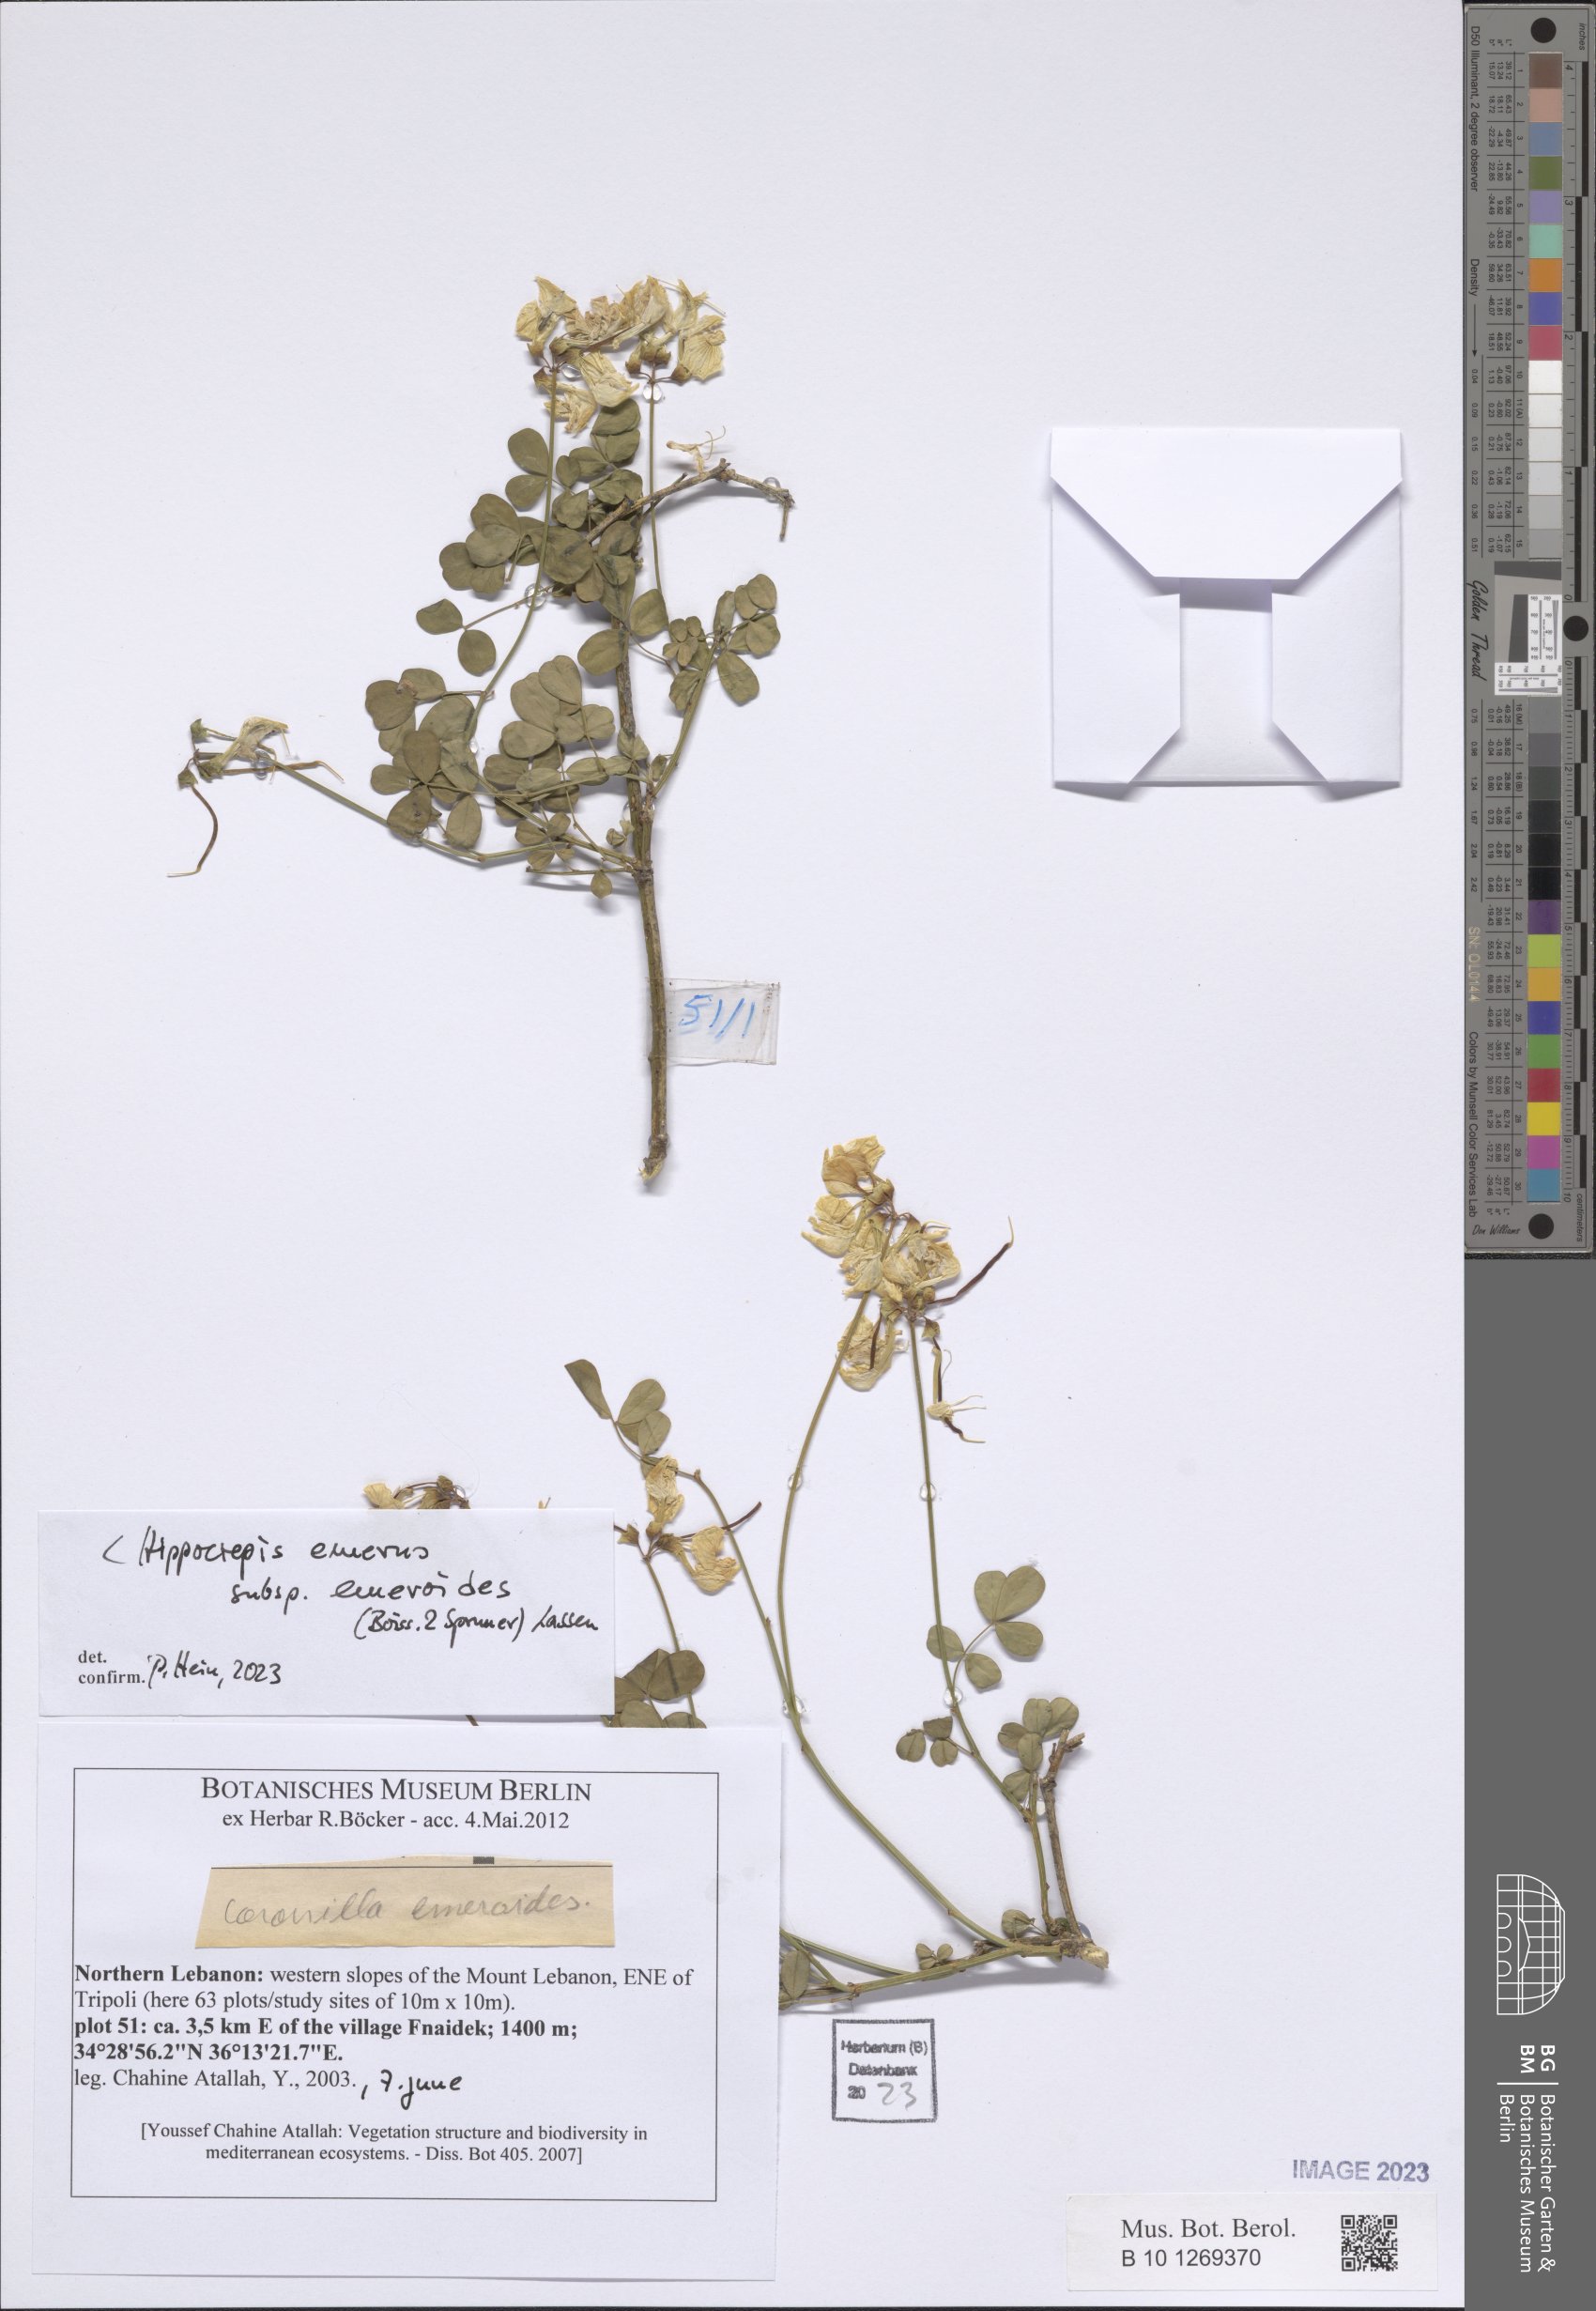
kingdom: Plantae
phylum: Tracheophyta
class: Magnoliopsida
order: Fabales
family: Fabaceae
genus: Hippocrepis
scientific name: Hippocrepis emerus
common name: Scorpion senna
